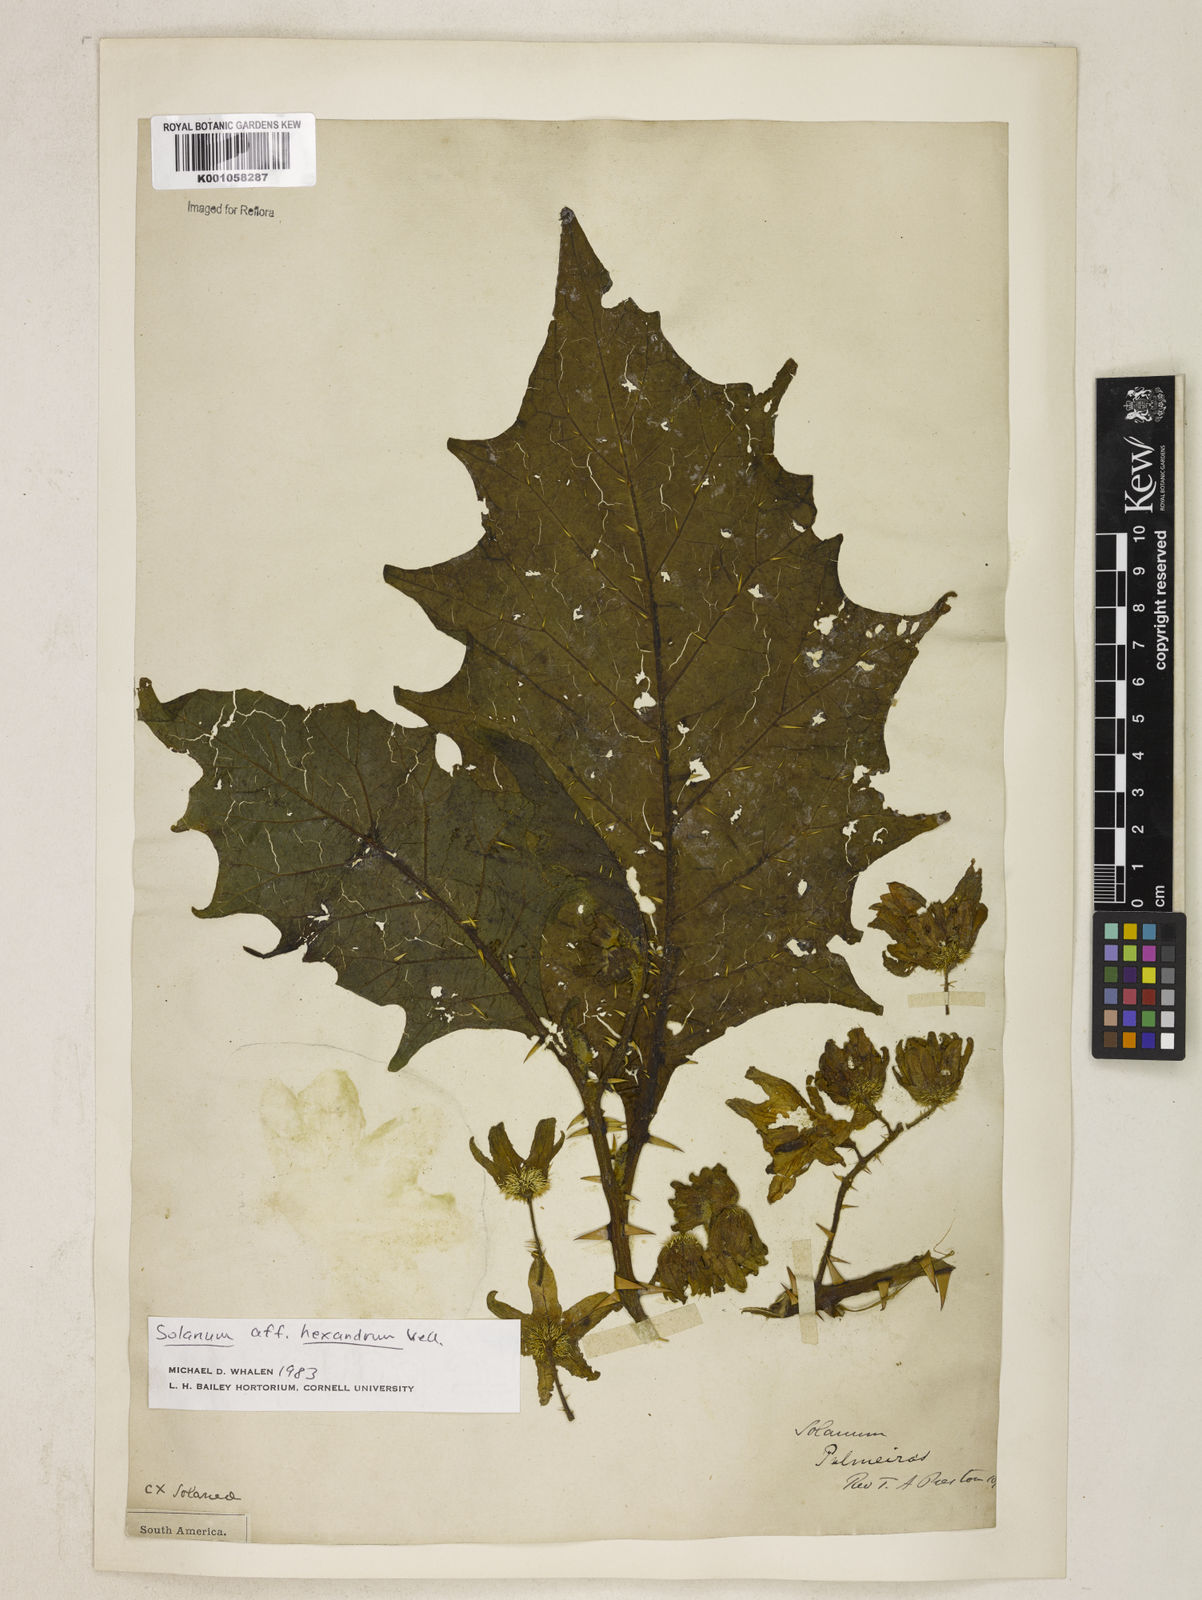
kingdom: Plantae
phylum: Tracheophyta
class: Magnoliopsida
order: Solanales
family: Solanaceae
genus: Solanum
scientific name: Solanum hexandrum
